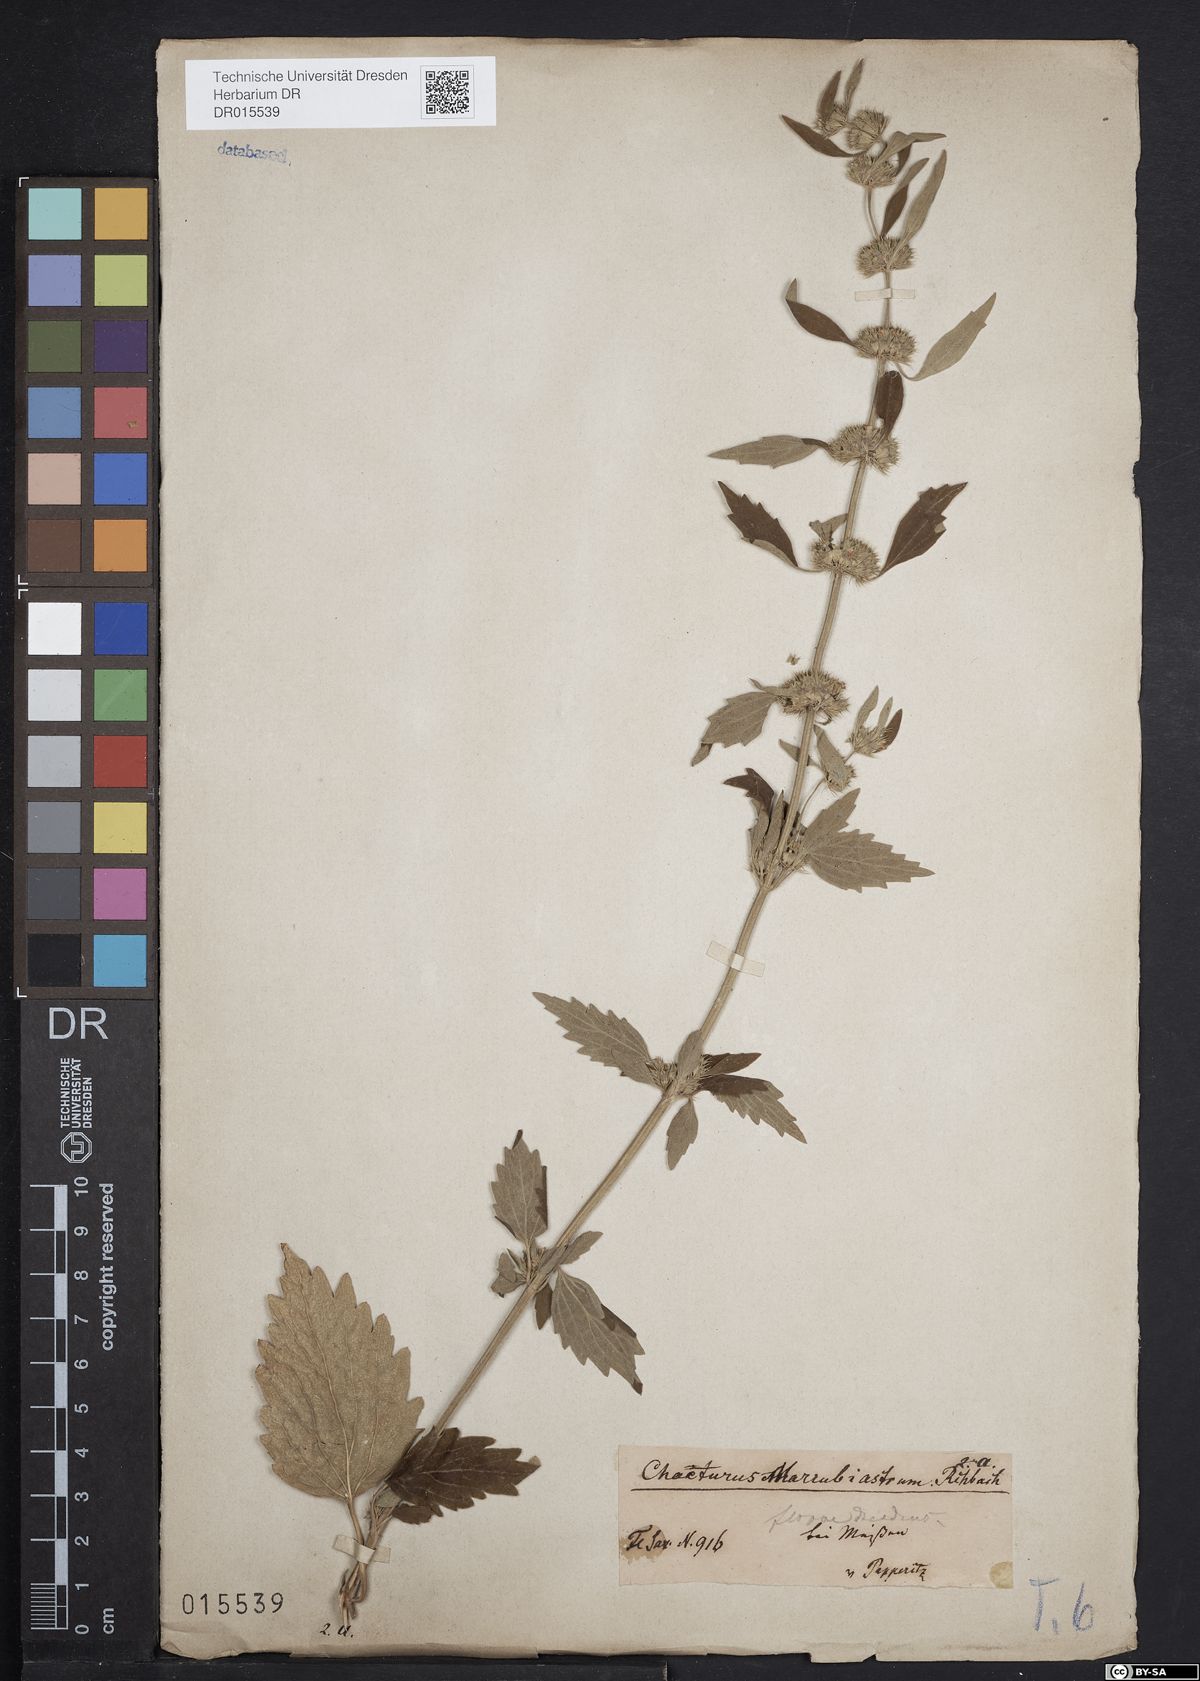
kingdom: Plantae
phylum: Tracheophyta
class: Magnoliopsida
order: Lamiales
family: Lamiaceae
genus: Chaiturus
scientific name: Chaiturus marrubiastrum
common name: Lion's tail
